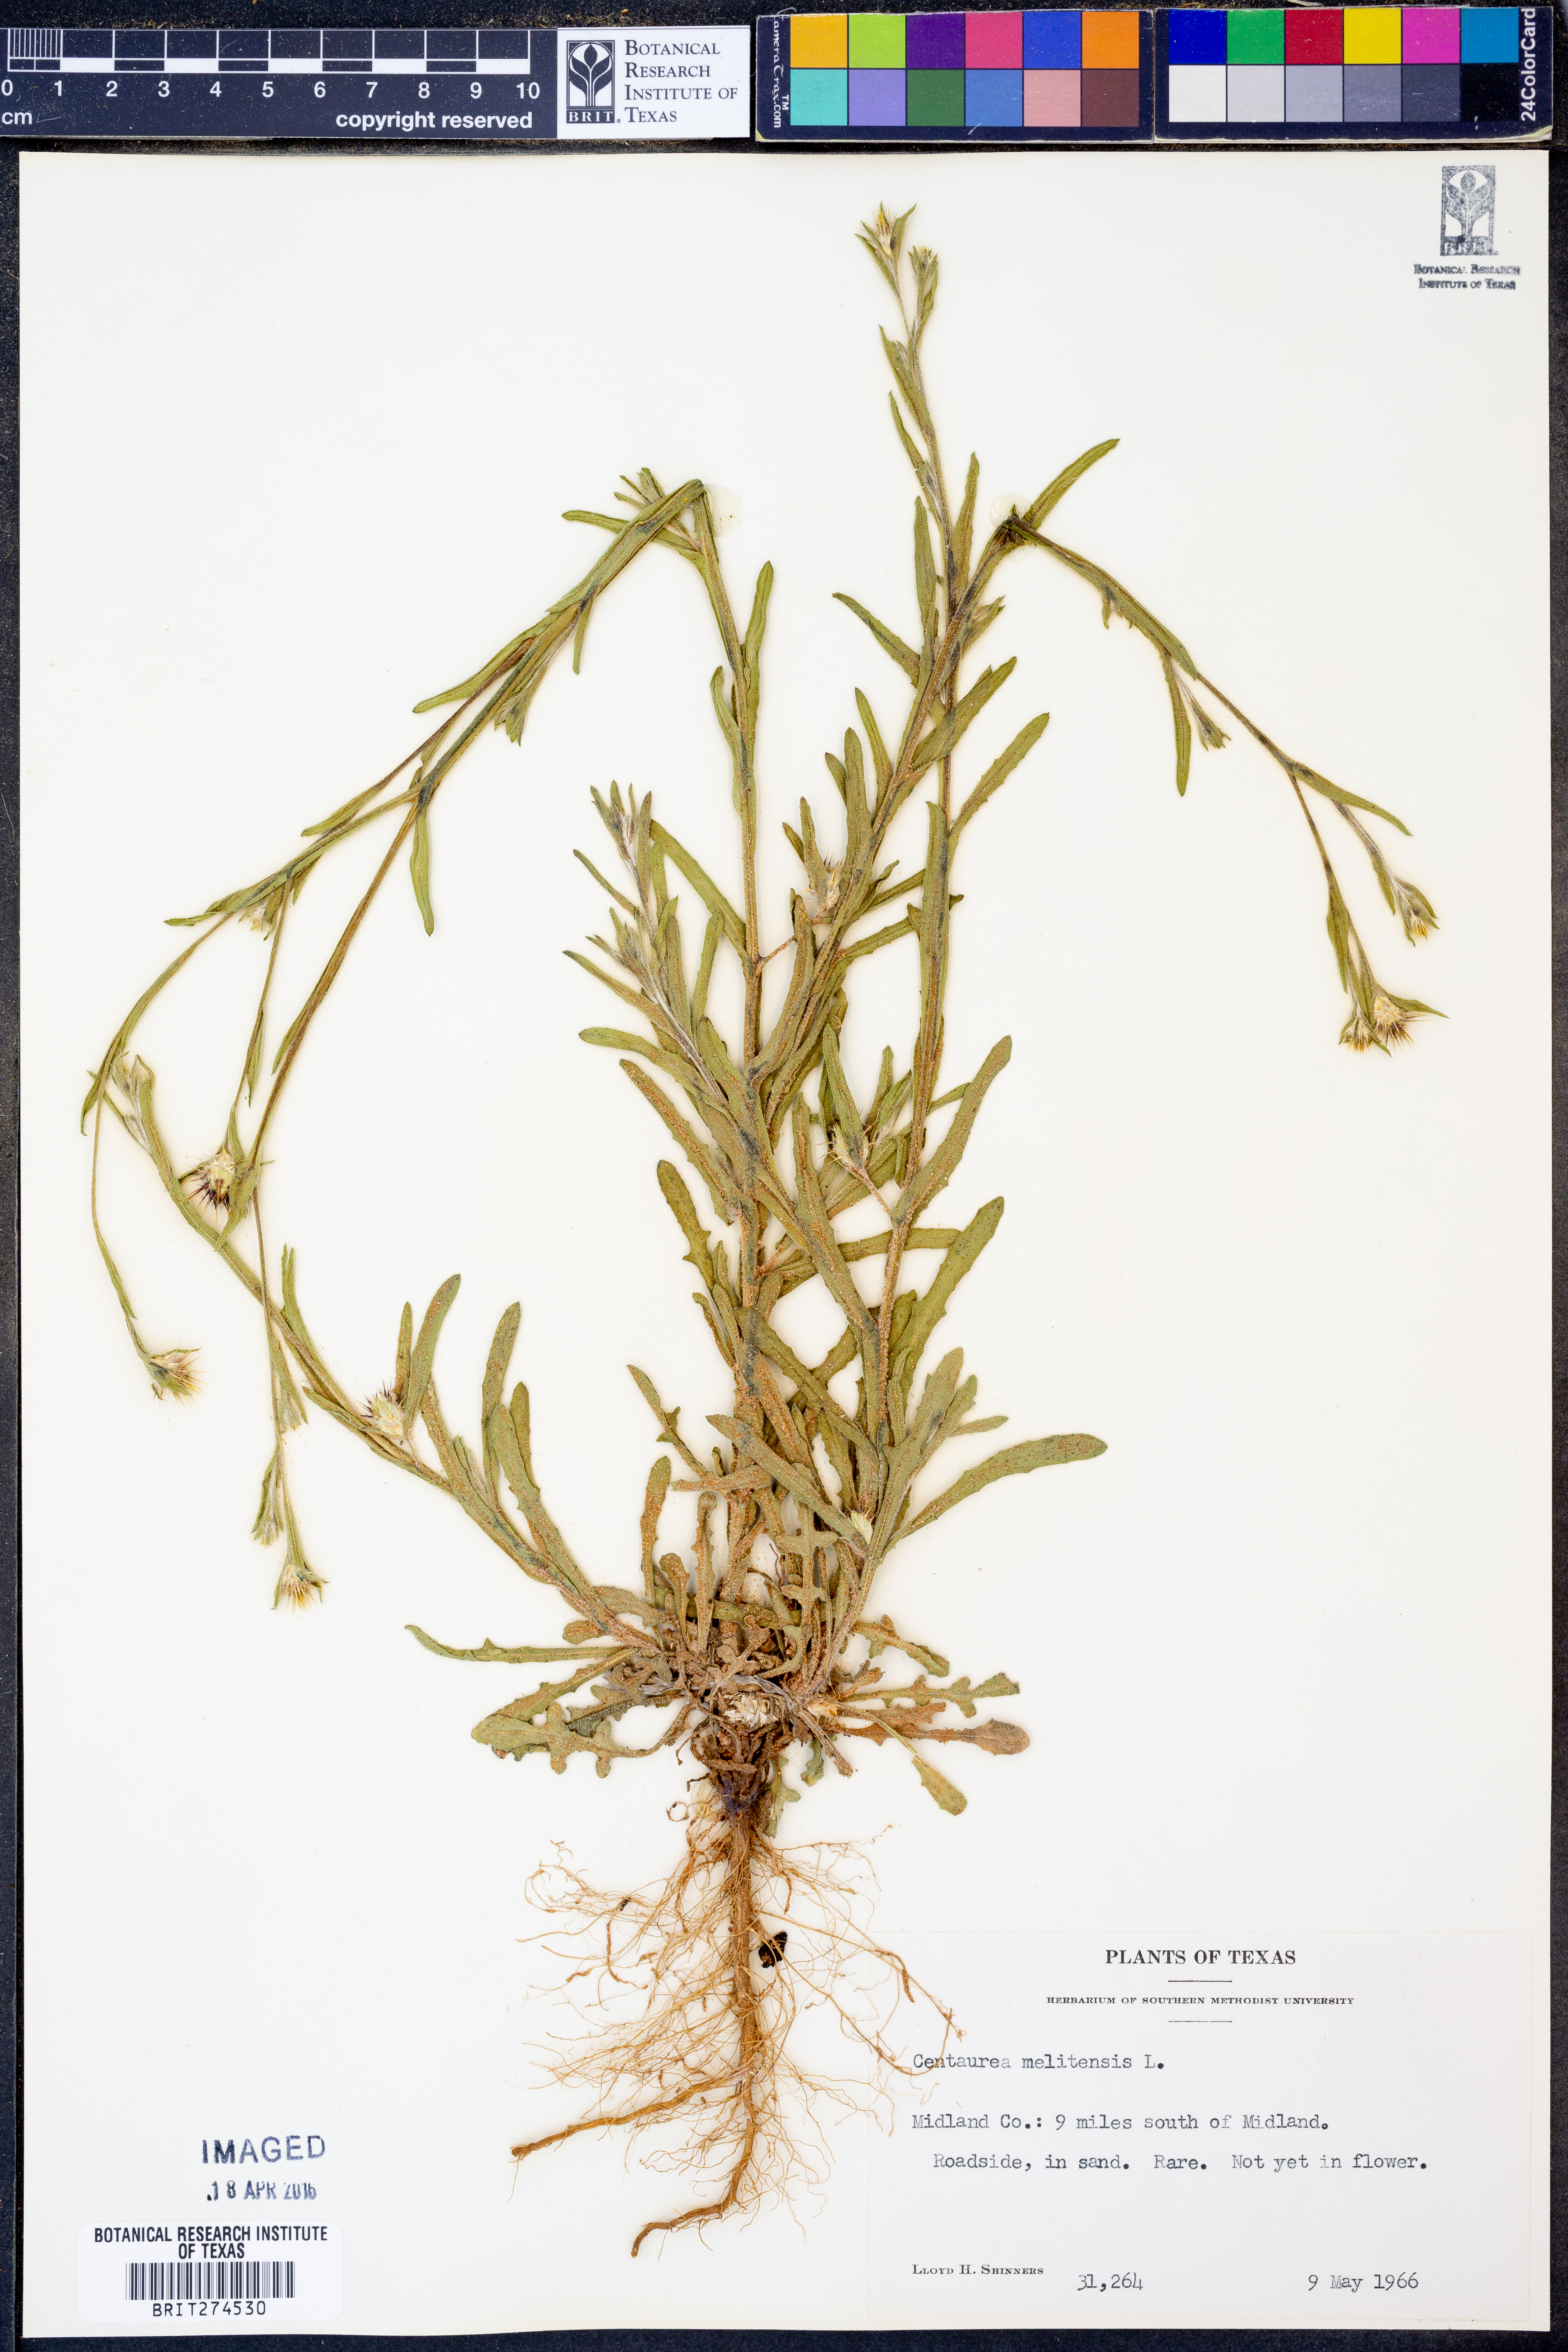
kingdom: Plantae
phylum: Tracheophyta
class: Magnoliopsida
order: Asterales
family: Asteraceae
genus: Centaurea
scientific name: Centaurea melitensis
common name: Maltese star-thistle
